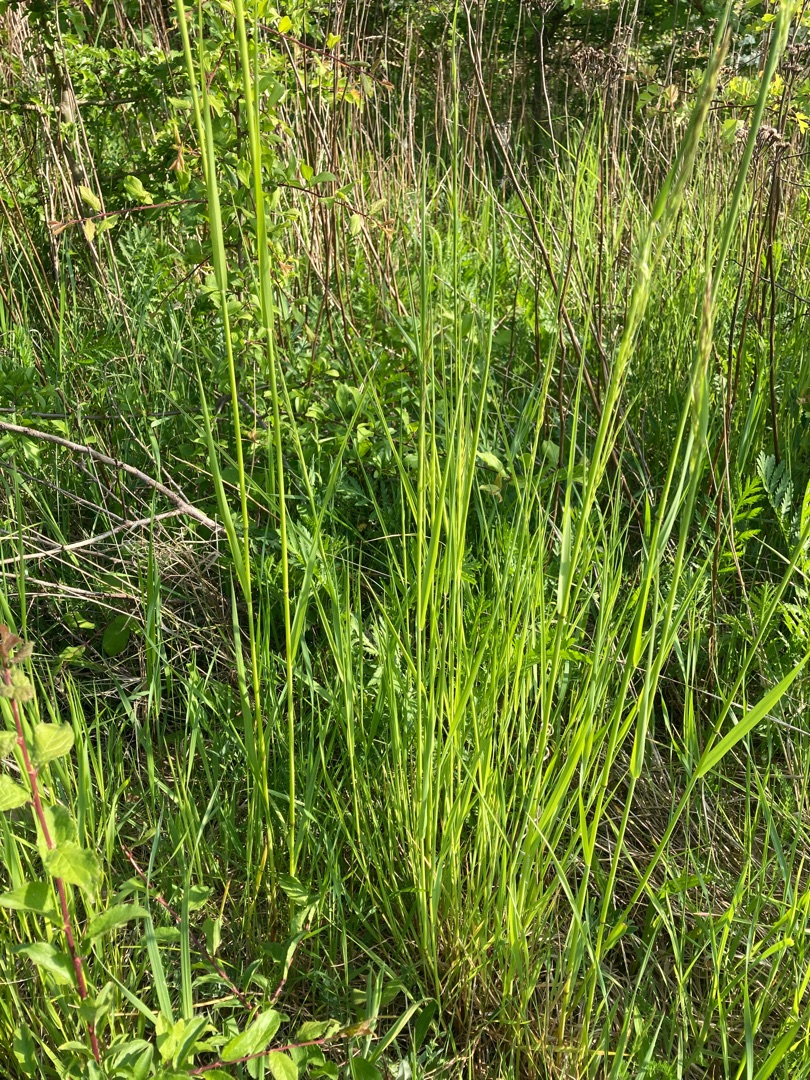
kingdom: Plantae
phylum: Tracheophyta
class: Liliopsida
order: Poales
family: Poaceae
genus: Arrhenatherum
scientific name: Arrhenatherum elatius
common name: Draphavre
